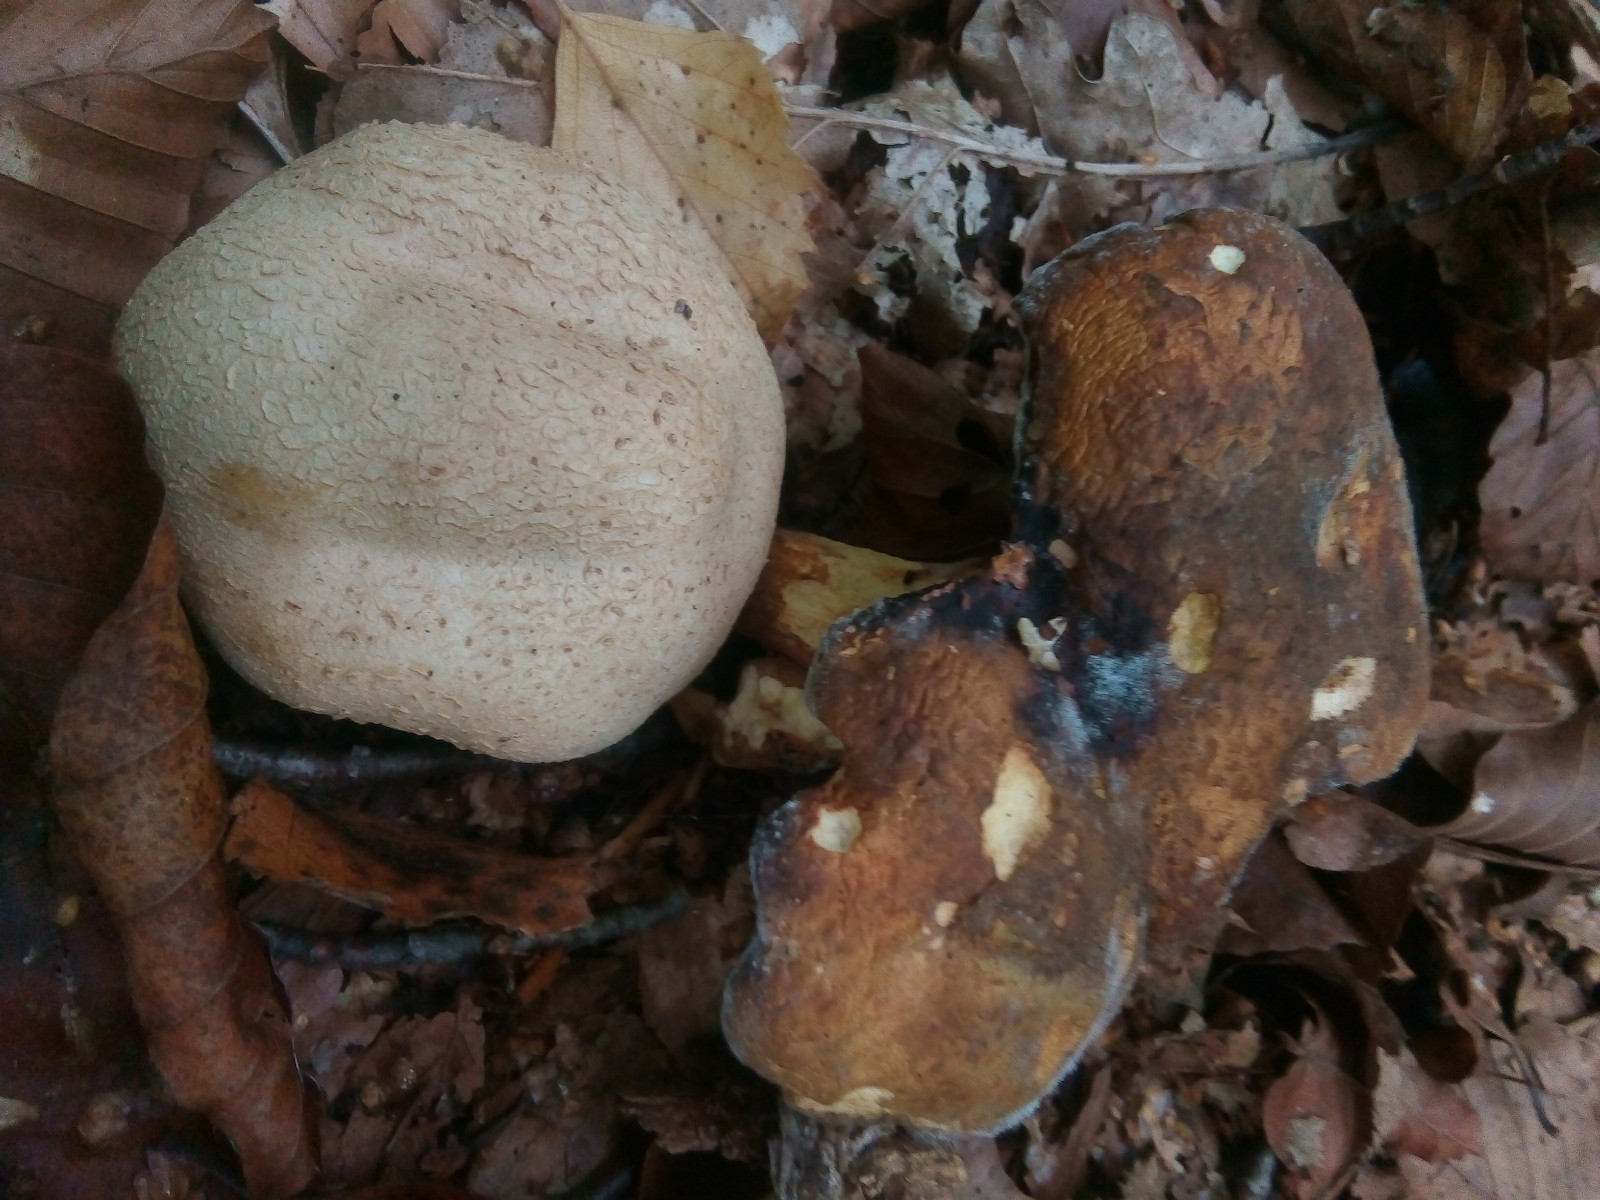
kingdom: Fungi
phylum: Basidiomycota
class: Agaricomycetes
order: Boletales
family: Boletaceae
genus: Pseudoboletus
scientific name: Pseudoboletus parasiticus
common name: snyltende rørhat
